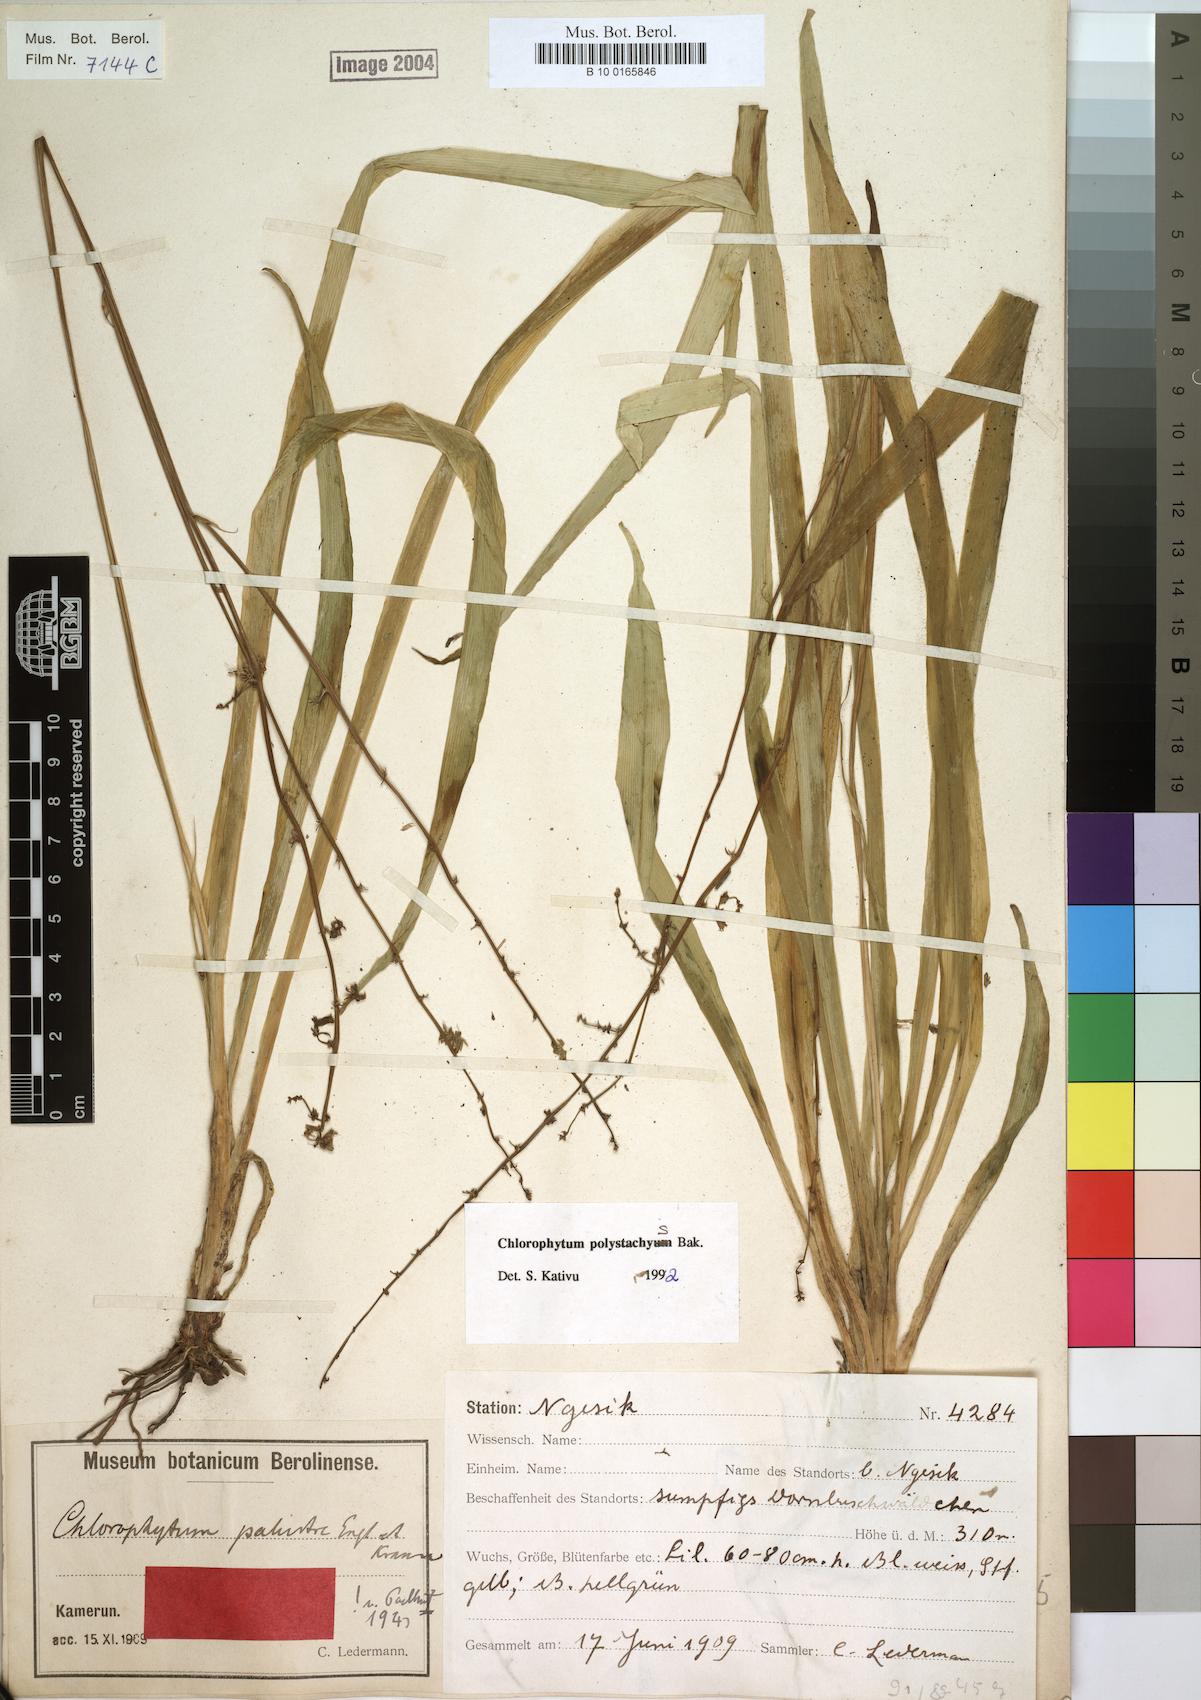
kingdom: Plantae
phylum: Tracheophyta
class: Liliopsida
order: Asparagales
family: Asparagaceae
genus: Chlorophytum
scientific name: Chlorophytum polystachys
